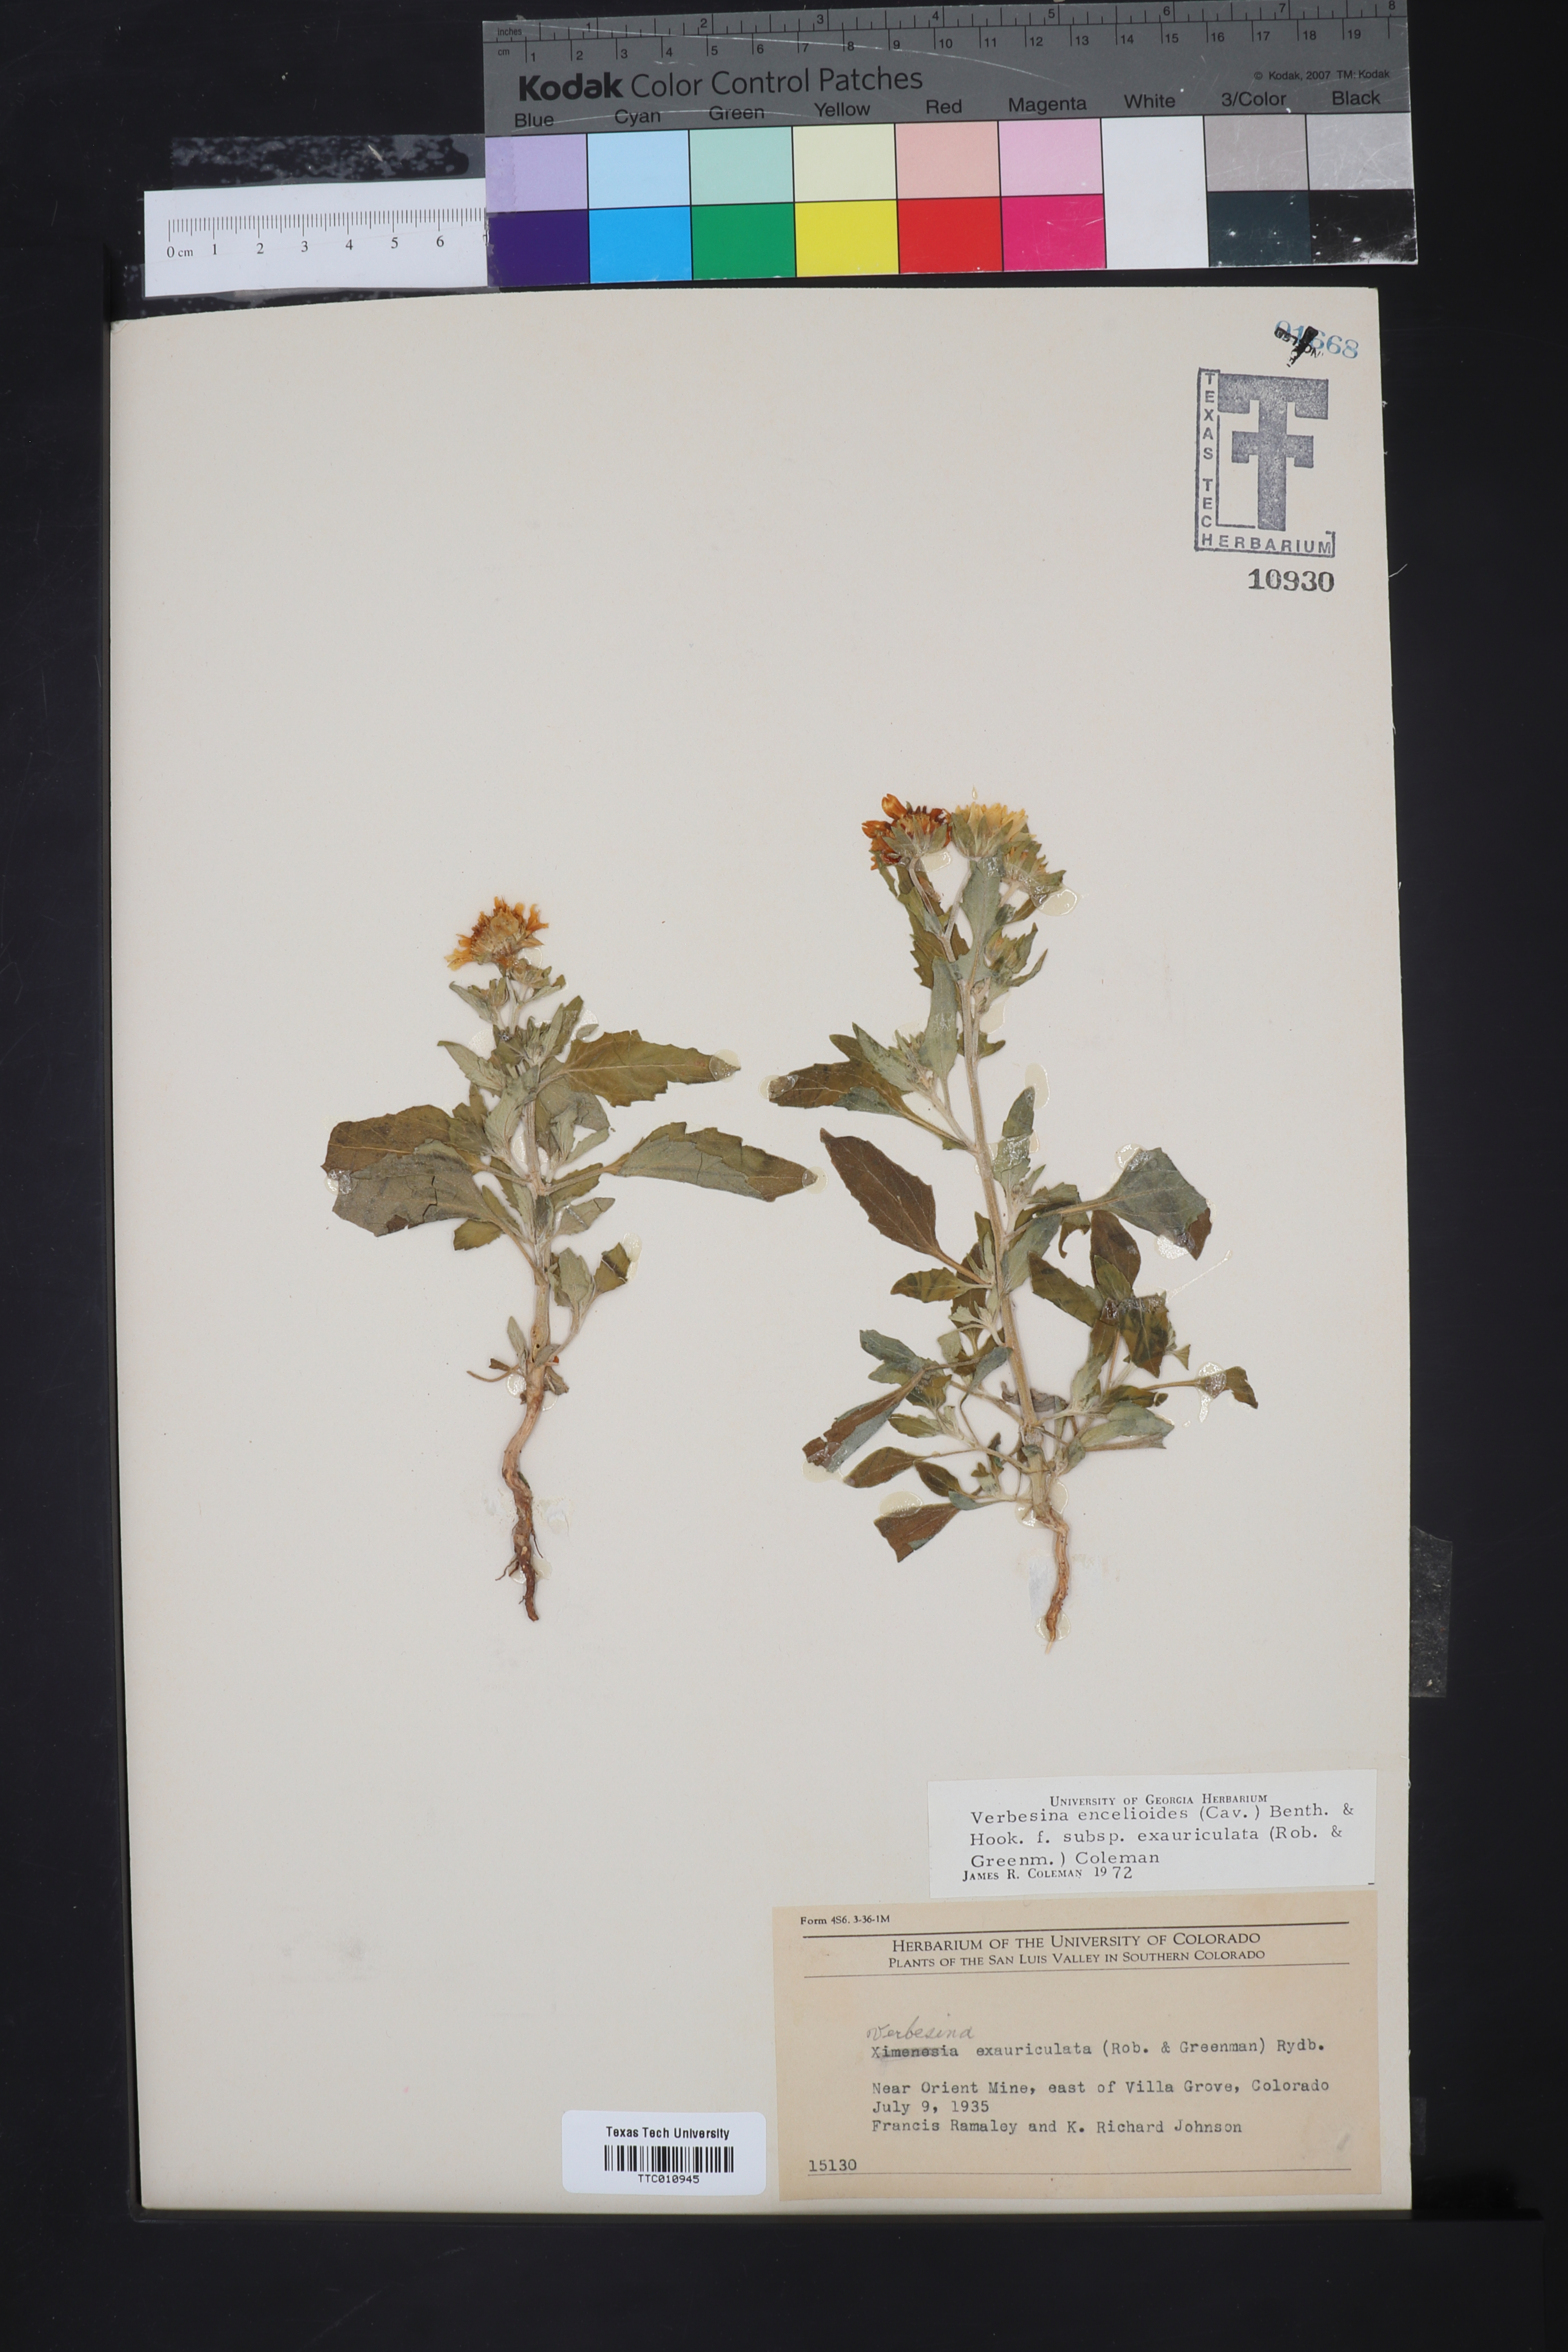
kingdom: Plantae
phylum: Tracheophyta
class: Magnoliopsida
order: Asterales
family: Asteraceae
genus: Verbesina
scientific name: Verbesina encelioides
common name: Golden crownbeard
